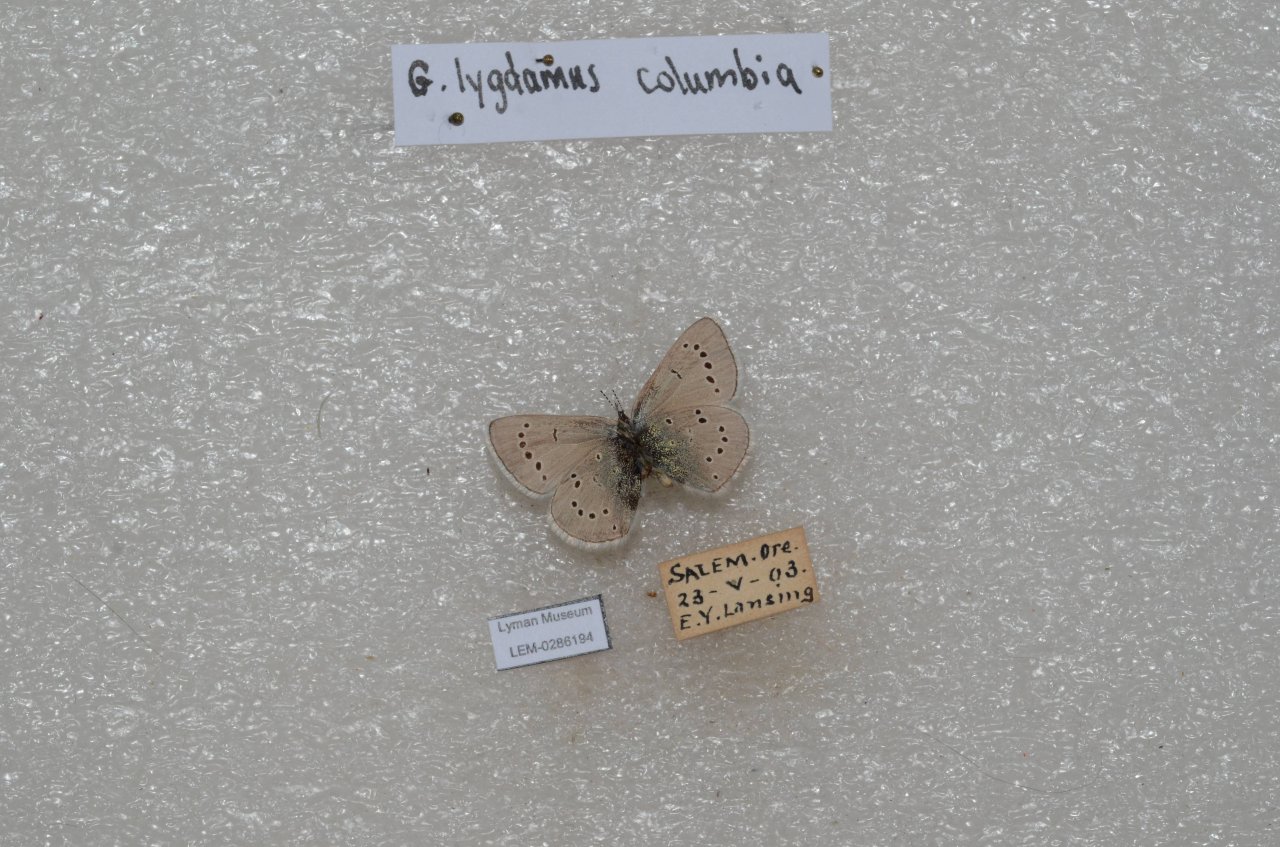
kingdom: Animalia
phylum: Arthropoda
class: Insecta
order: Lepidoptera
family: Lycaenidae
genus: Glaucopsyche
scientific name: Glaucopsyche lygdamus
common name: Silvery Blue
